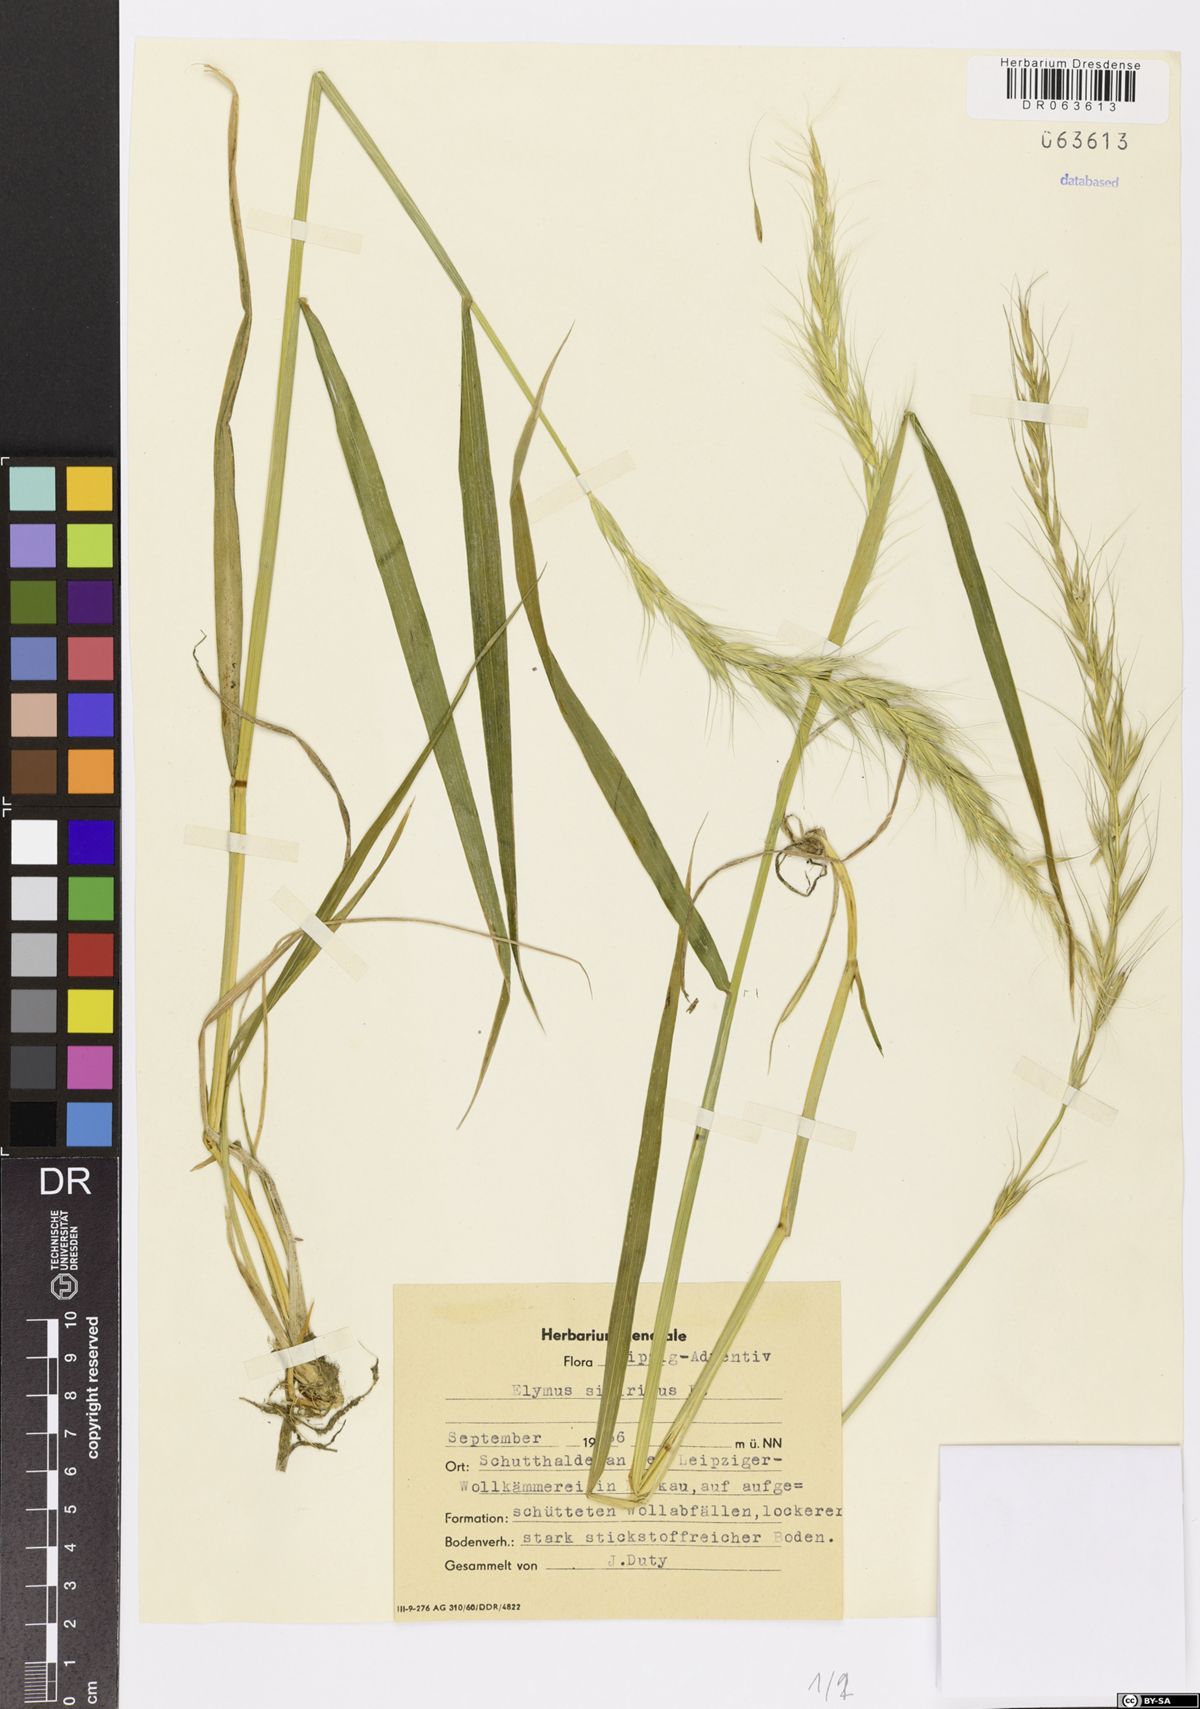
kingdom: Plantae
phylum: Tracheophyta
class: Liliopsida
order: Poales
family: Poaceae
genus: Elymus
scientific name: Elymus sibiricus
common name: Siberian wildrye
